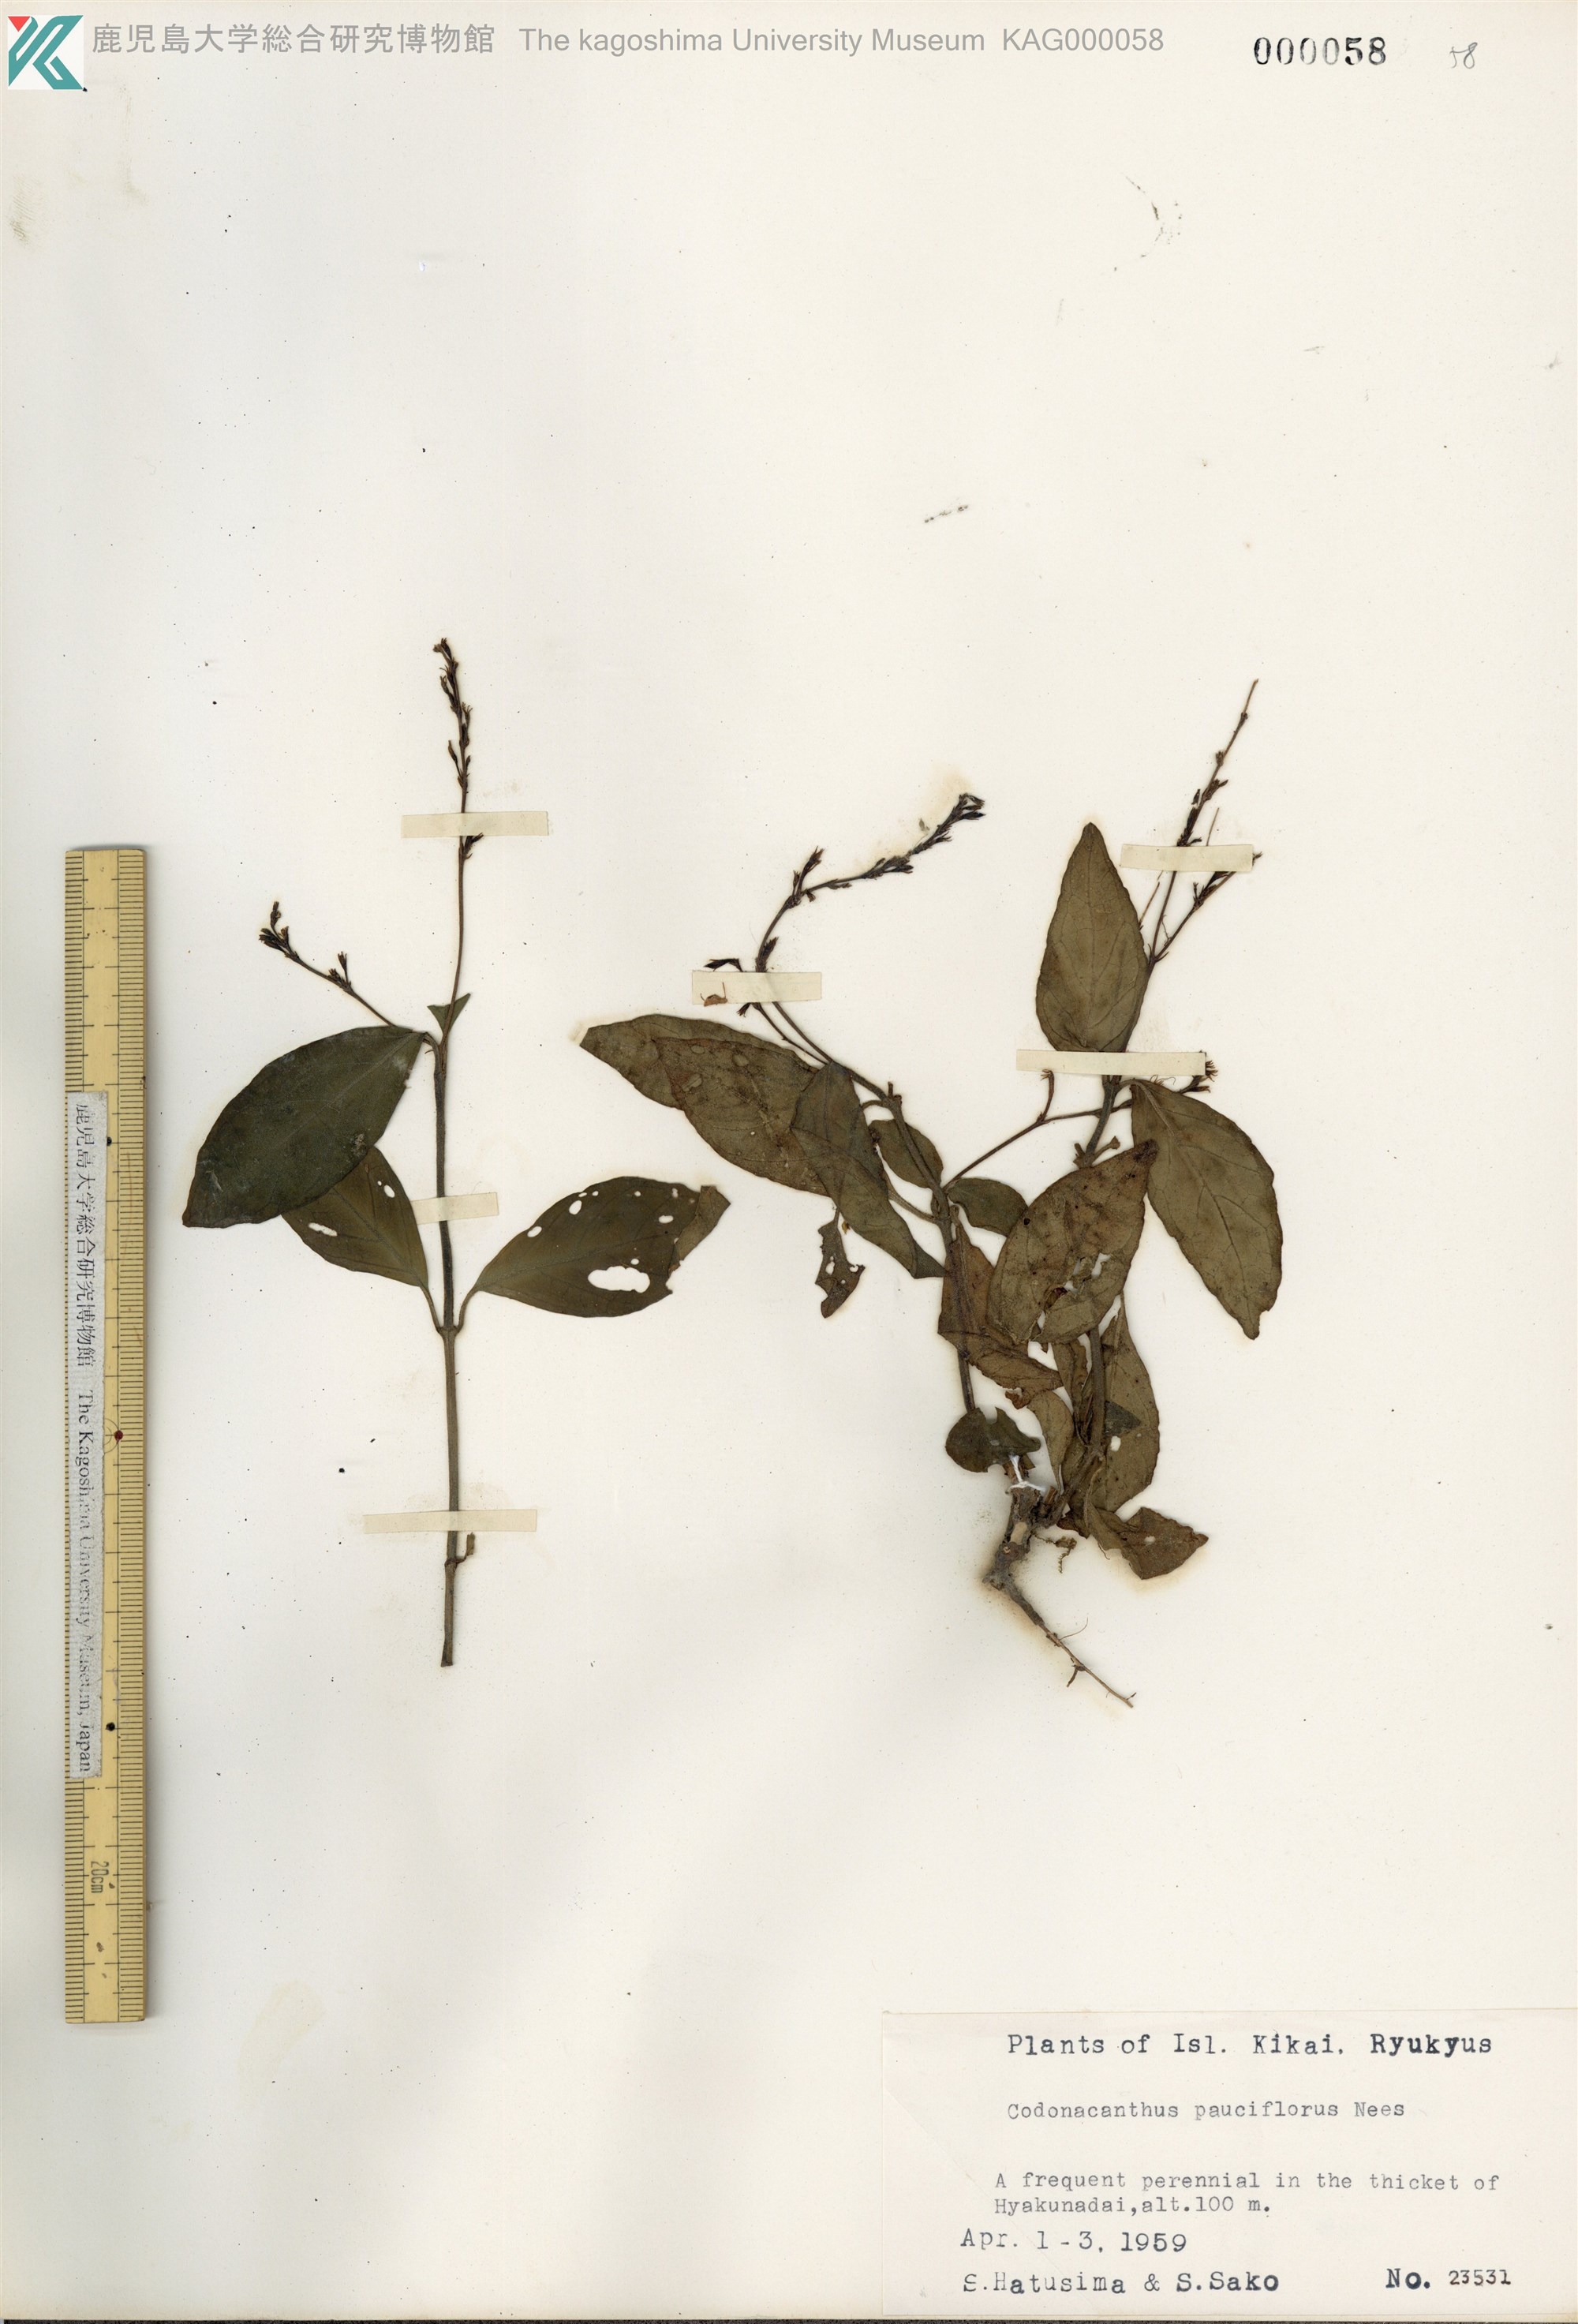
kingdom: Plantae
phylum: Tracheophyta
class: Magnoliopsida
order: Lamiales
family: Acanthaceae
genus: Codonacanthus
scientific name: Codonacanthus pauciflorus
